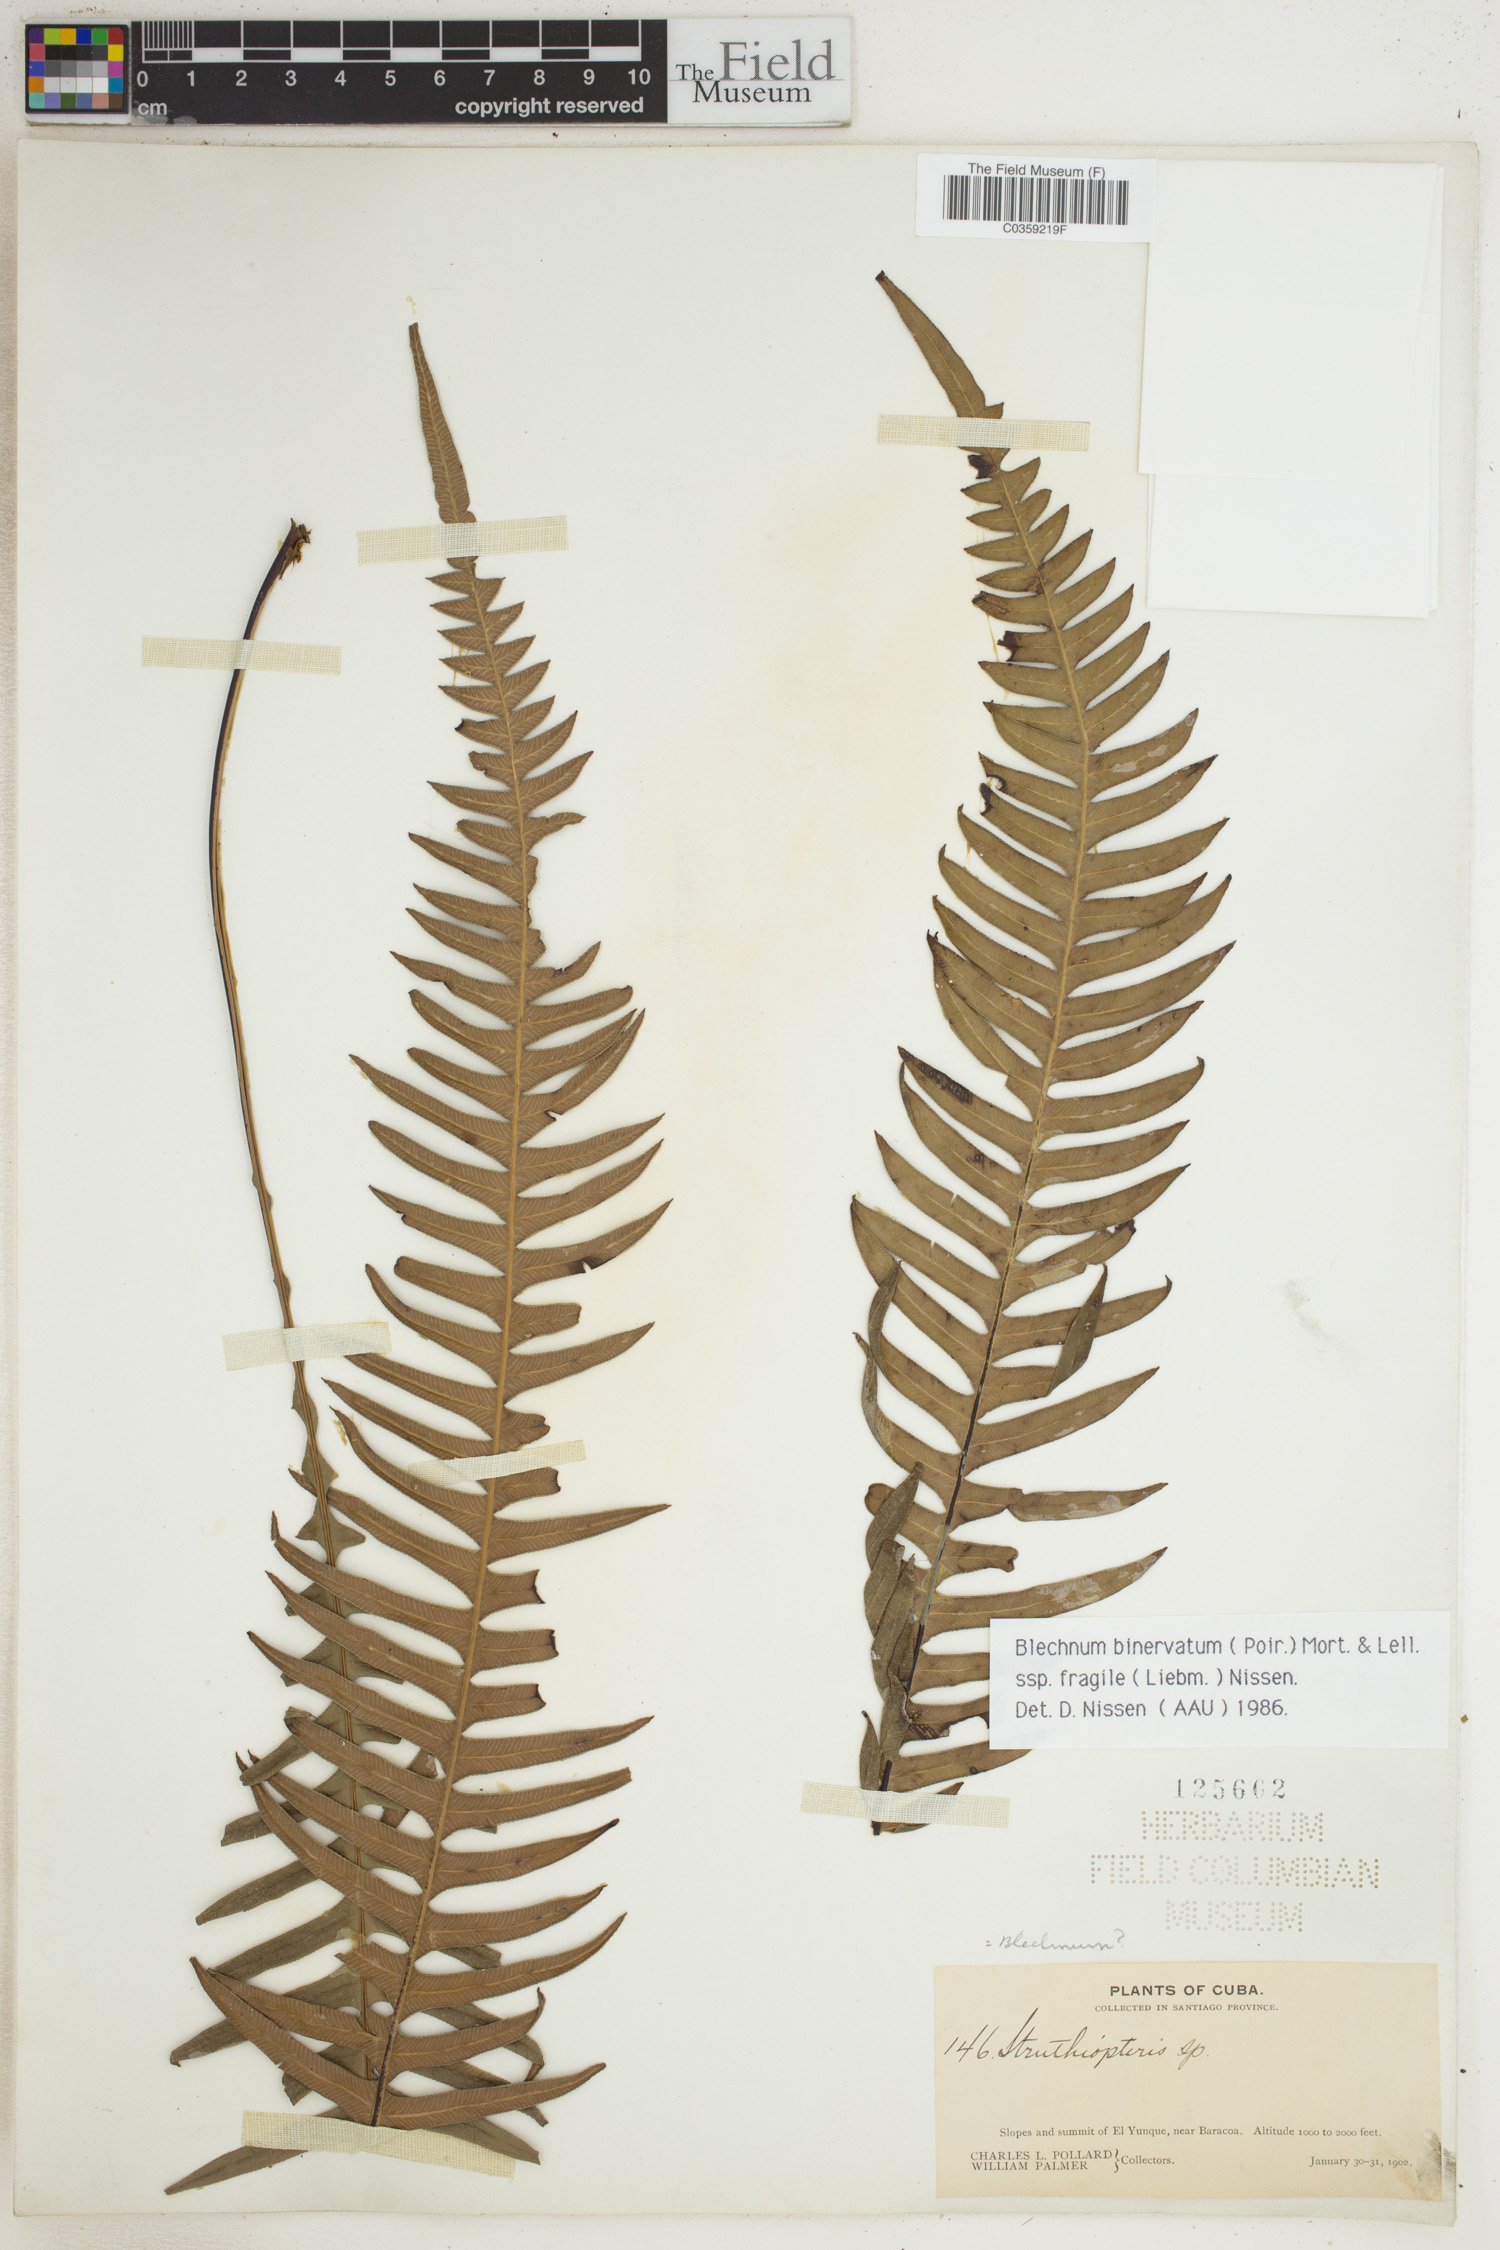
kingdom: Plantae
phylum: Tracheophyta
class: Polypodiopsida
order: Polypodiales
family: Blechnaceae
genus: Lomaridium
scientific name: Lomaridium binervatum
